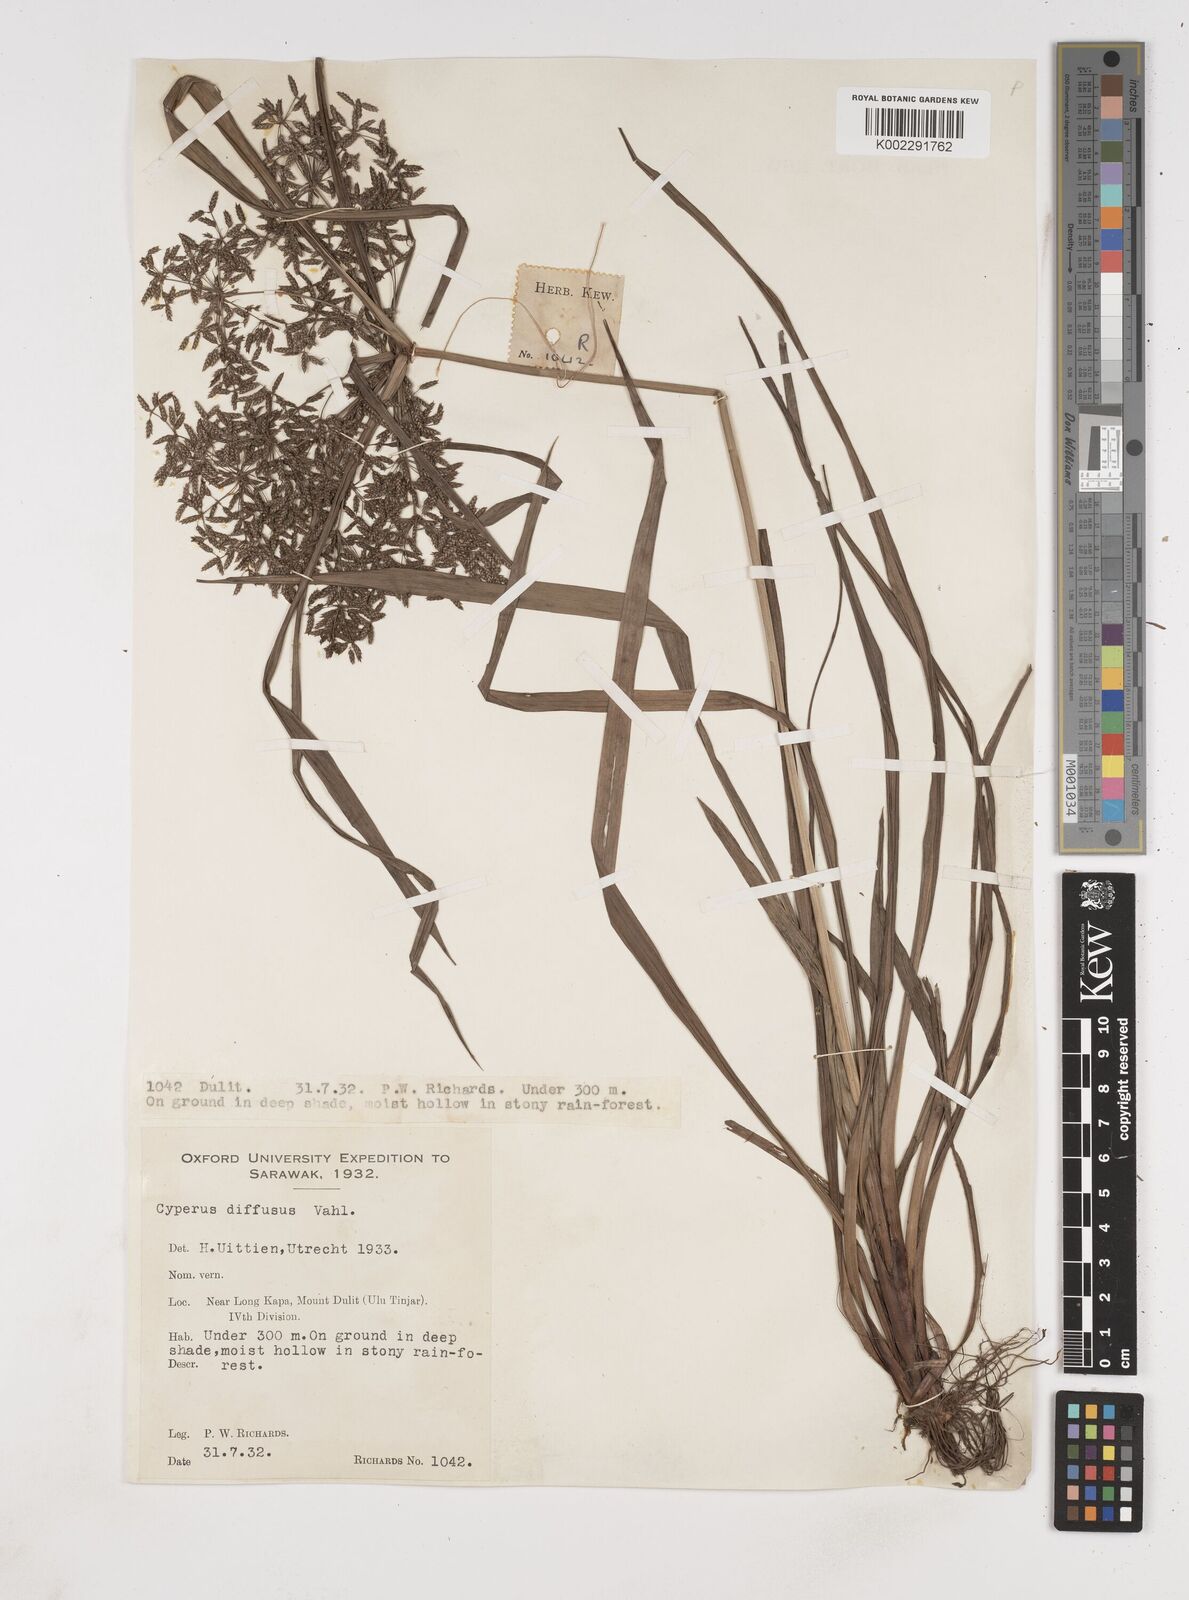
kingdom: Plantae
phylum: Tracheophyta
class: Liliopsida
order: Poales
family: Cyperaceae
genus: Cyperus
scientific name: Cyperus diffusus
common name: Dwarf umbrella grass
